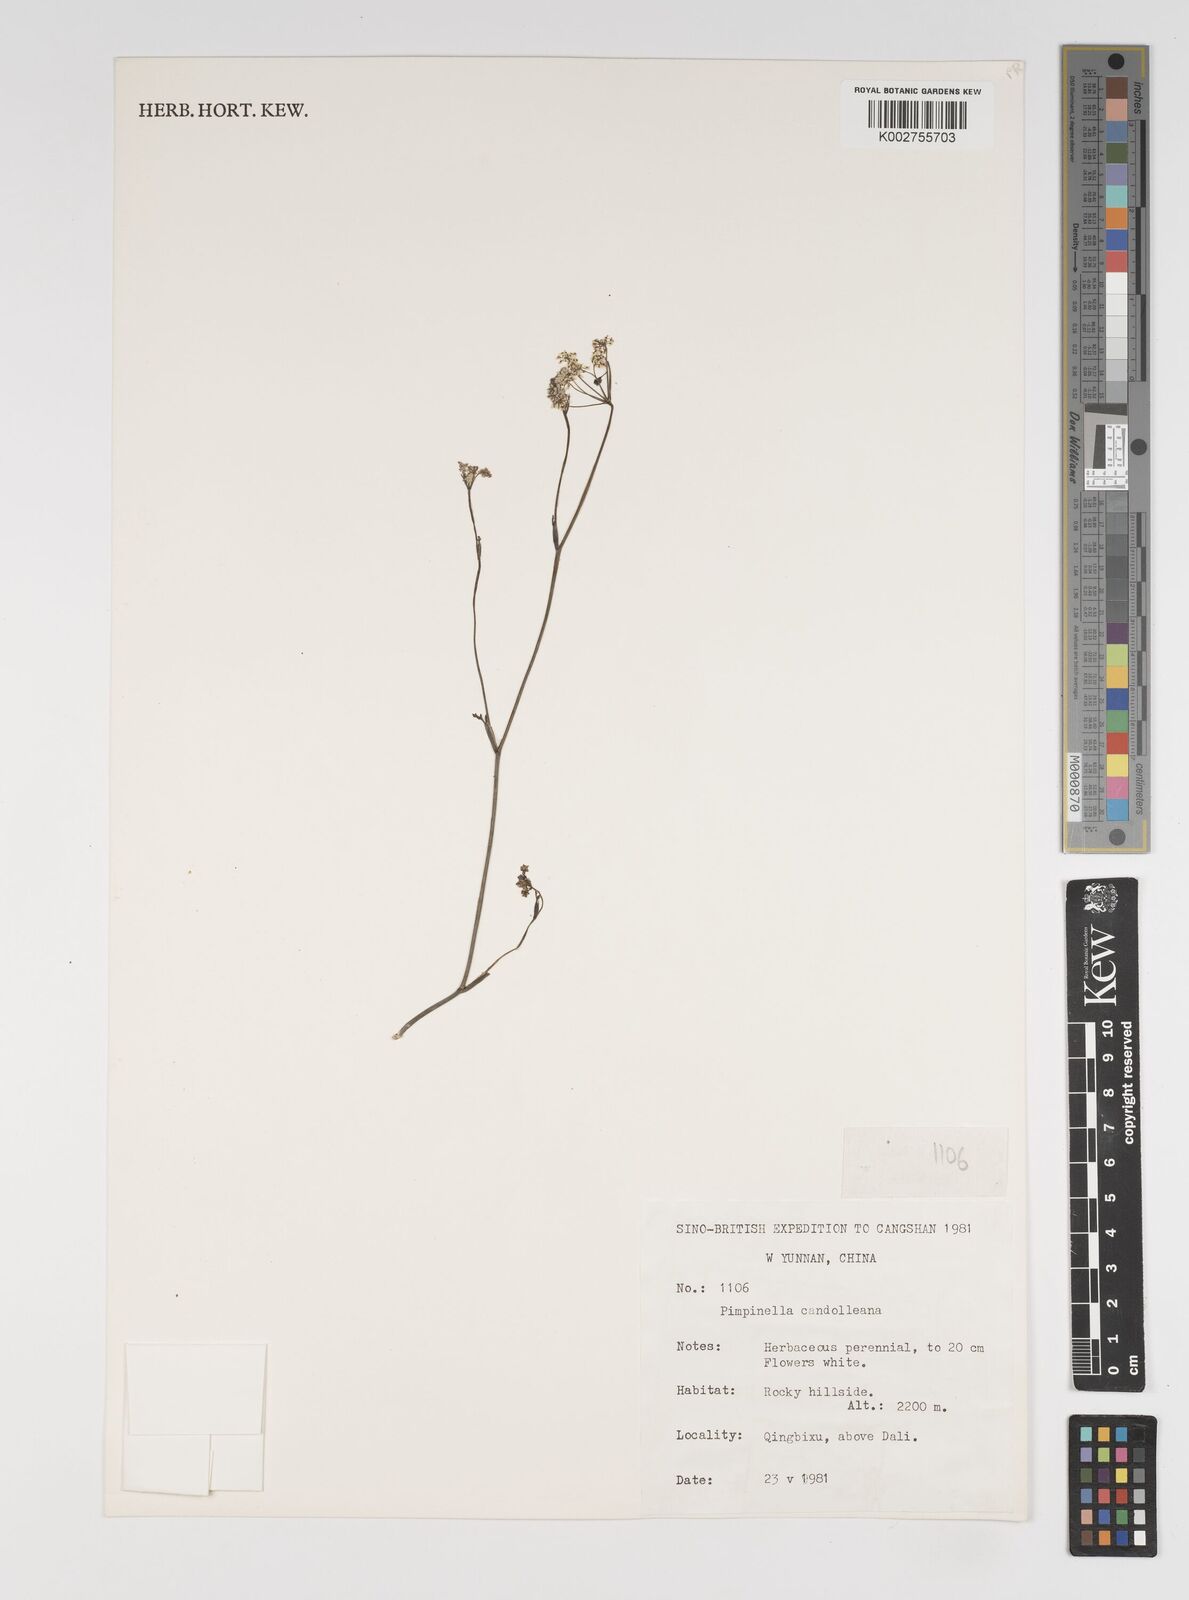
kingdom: Plantae
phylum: Tracheophyta
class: Magnoliopsida
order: Apiales
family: Apiaceae
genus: Pimpinella
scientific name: Pimpinella candolleana
